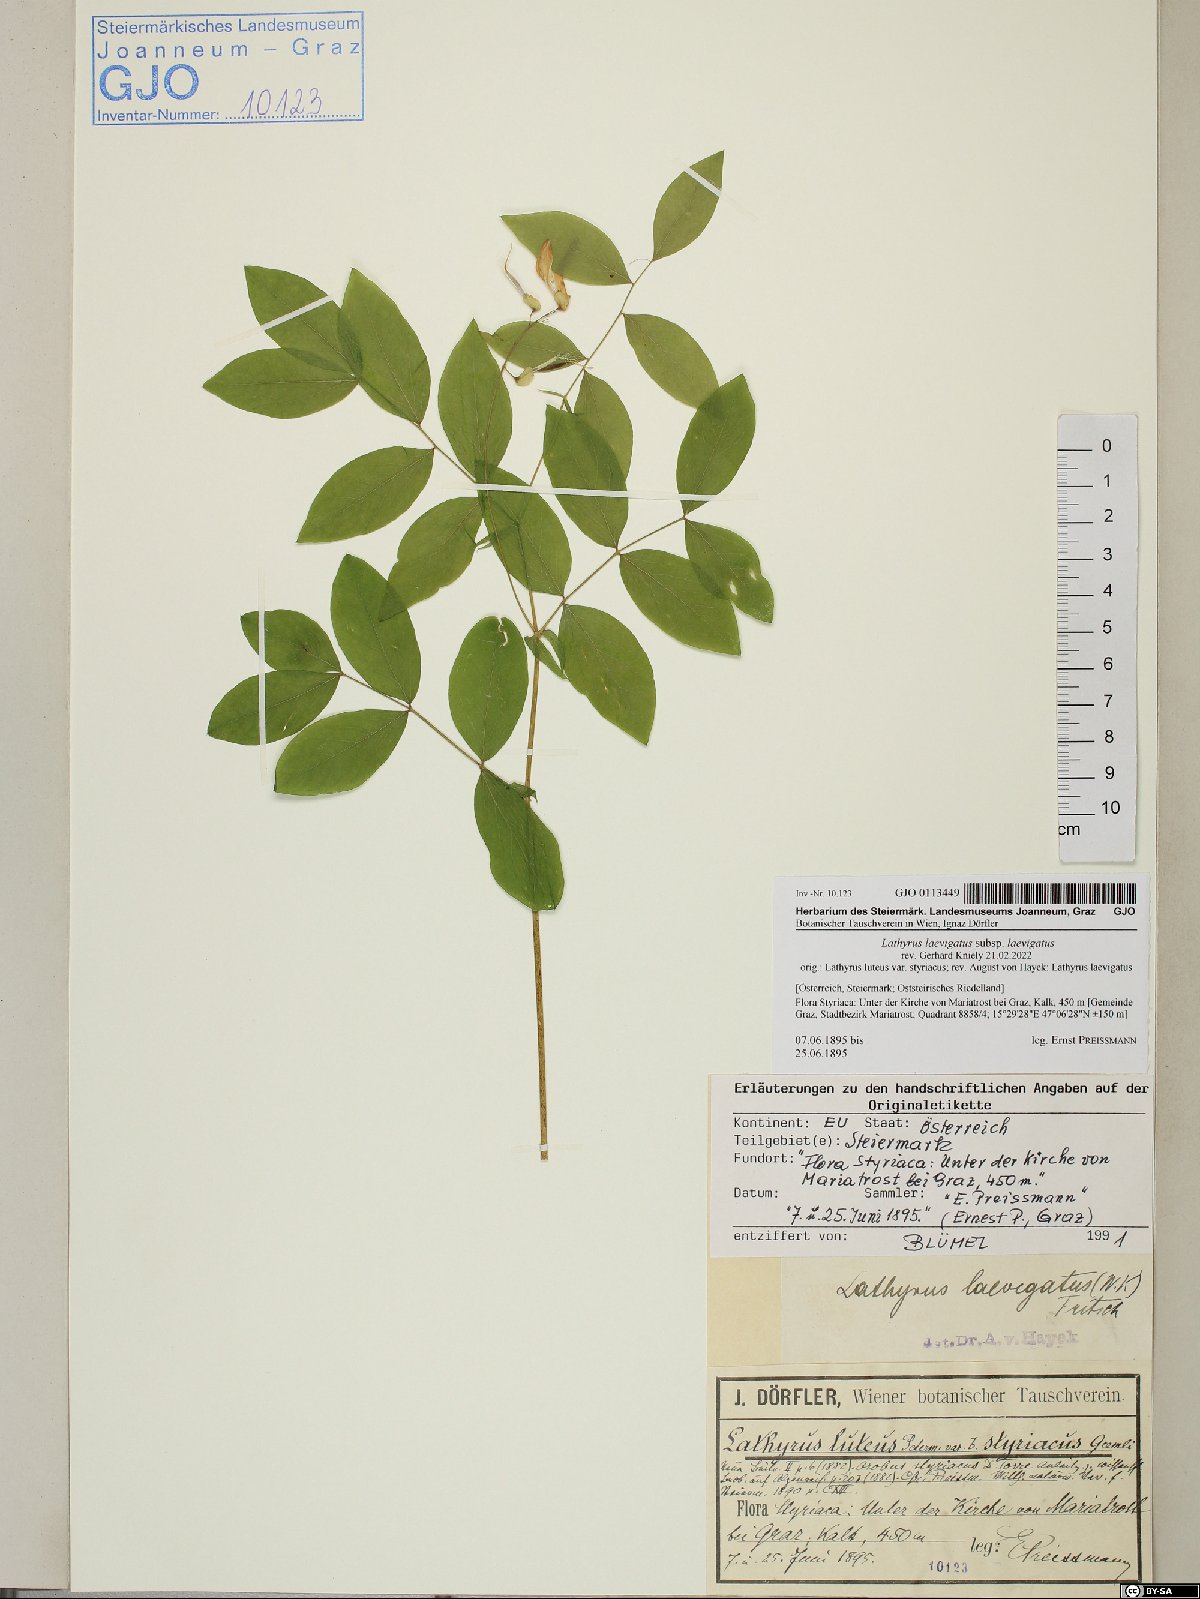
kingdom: Plantae
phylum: Tracheophyta
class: Magnoliopsida
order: Fabales
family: Fabaceae
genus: Lathyrus
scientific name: Lathyrus laevigatus
